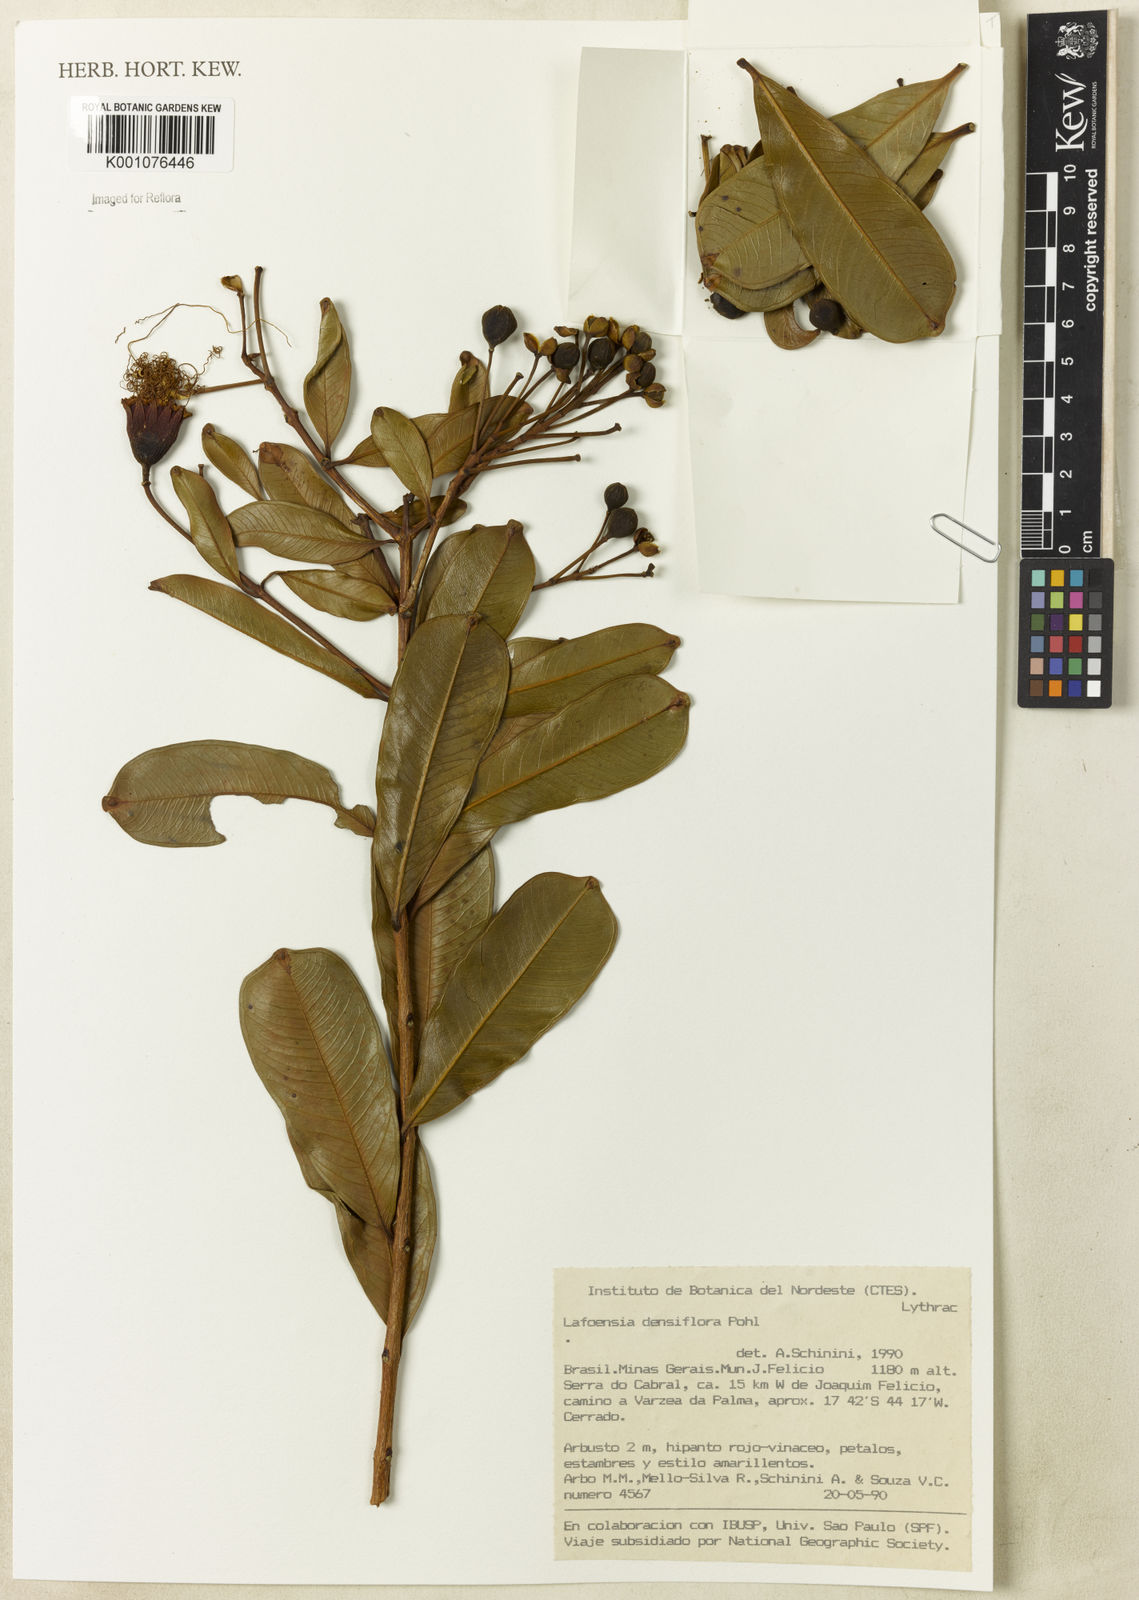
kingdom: Plantae
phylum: Tracheophyta
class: Magnoliopsida
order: Myrtales
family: Lythraceae
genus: Lafoensia
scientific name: Lafoensia vandelliana
